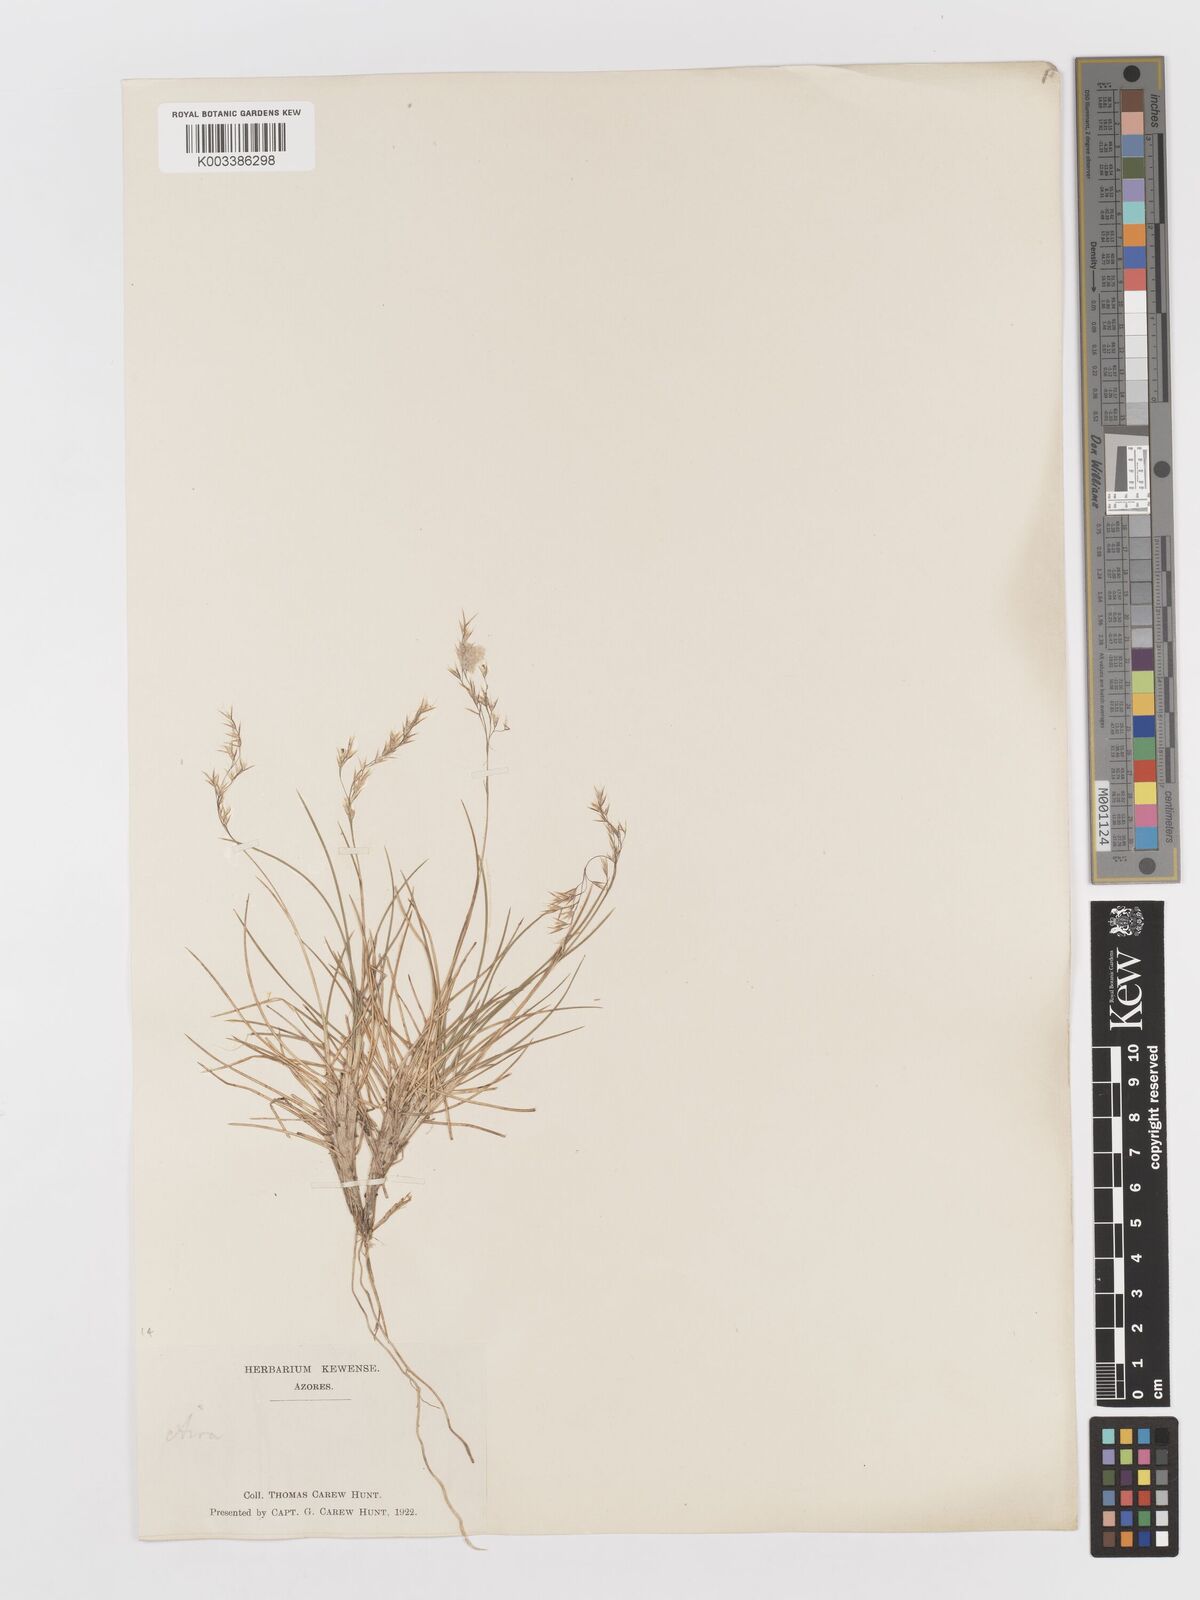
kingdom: Plantae
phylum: Tracheophyta
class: Liliopsida
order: Poales
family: Poaceae
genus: Avenella
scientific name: Avenella foliosa
